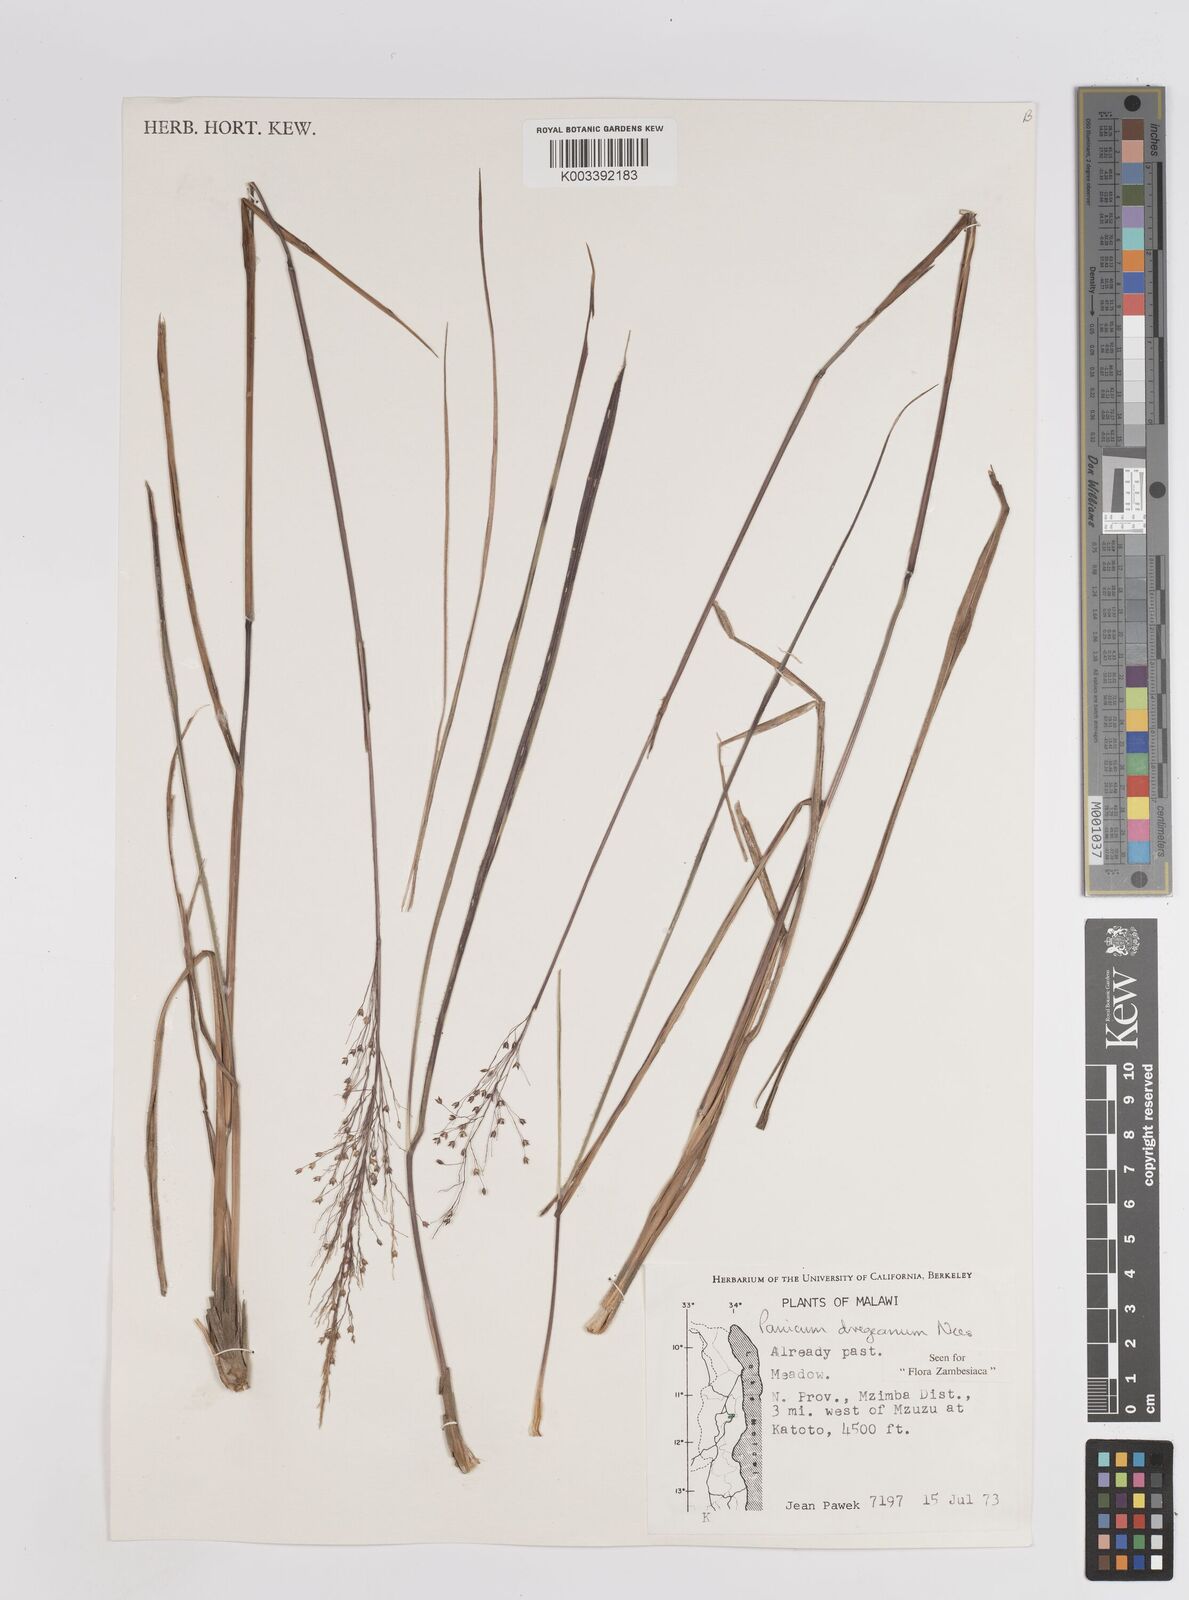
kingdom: Plantae
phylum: Tracheophyta
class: Liliopsida
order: Poales
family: Poaceae
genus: Panicum
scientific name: Panicum dregeanum
